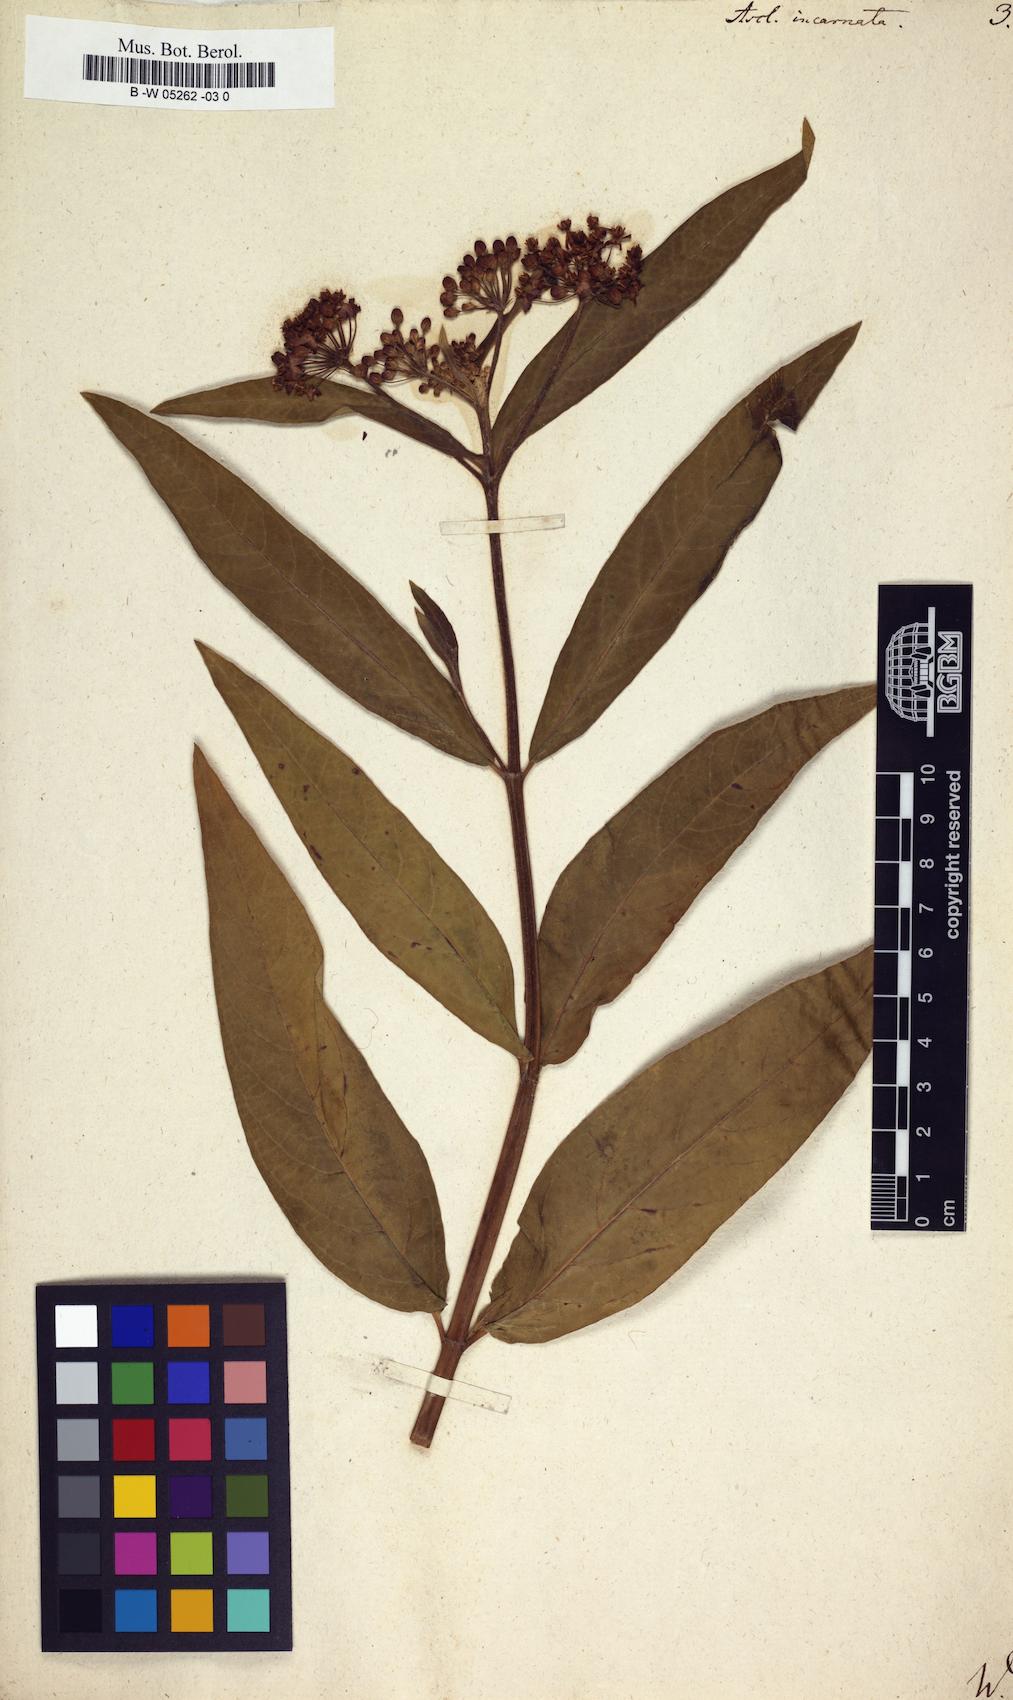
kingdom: Plantae
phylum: Tracheophyta
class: Magnoliopsida
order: Gentianales
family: Apocynaceae
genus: Asclepias
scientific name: Asclepias incarnata
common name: Swamp milkweed
